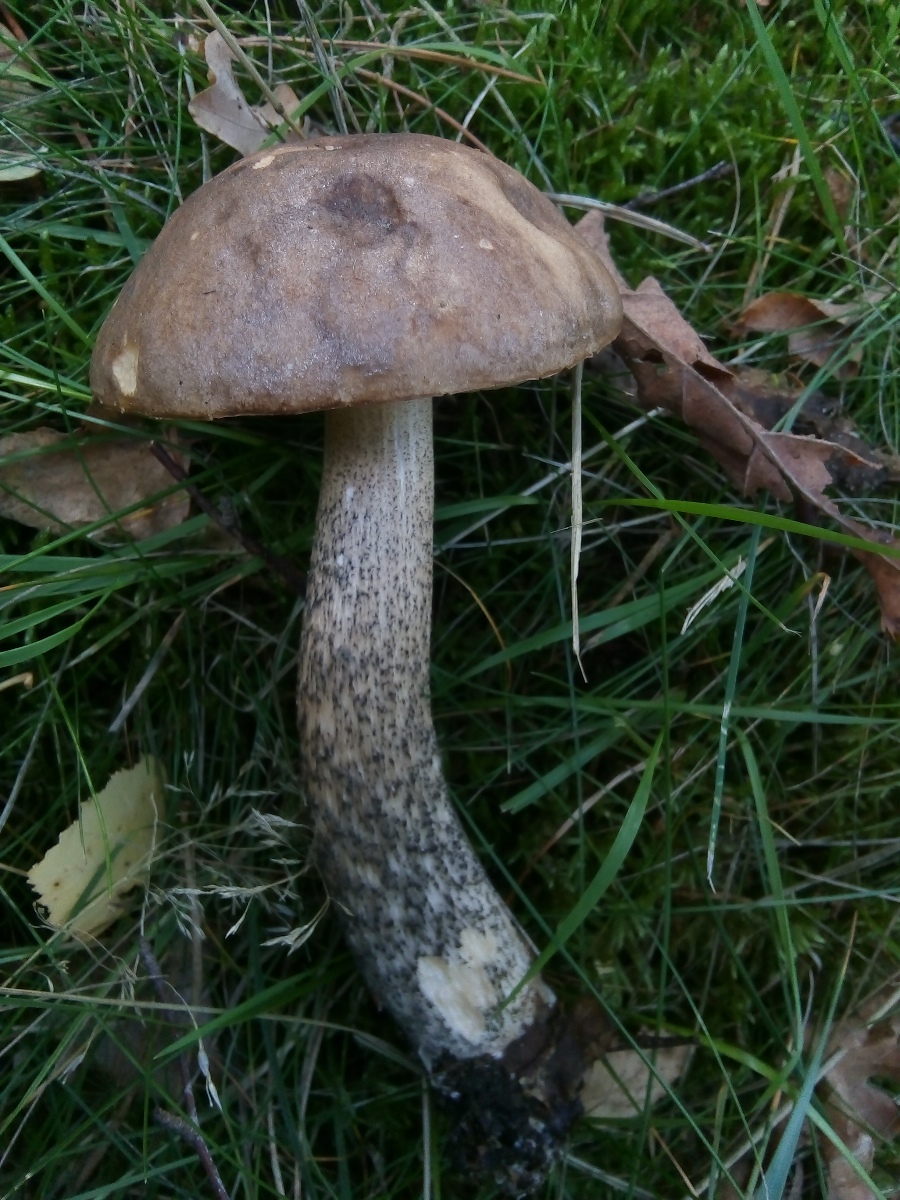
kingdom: Fungi
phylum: Basidiomycota
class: Agaricomycetes
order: Boletales
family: Boletaceae
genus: Leccinum
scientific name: Leccinum scabrum
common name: brun skælrørhat
